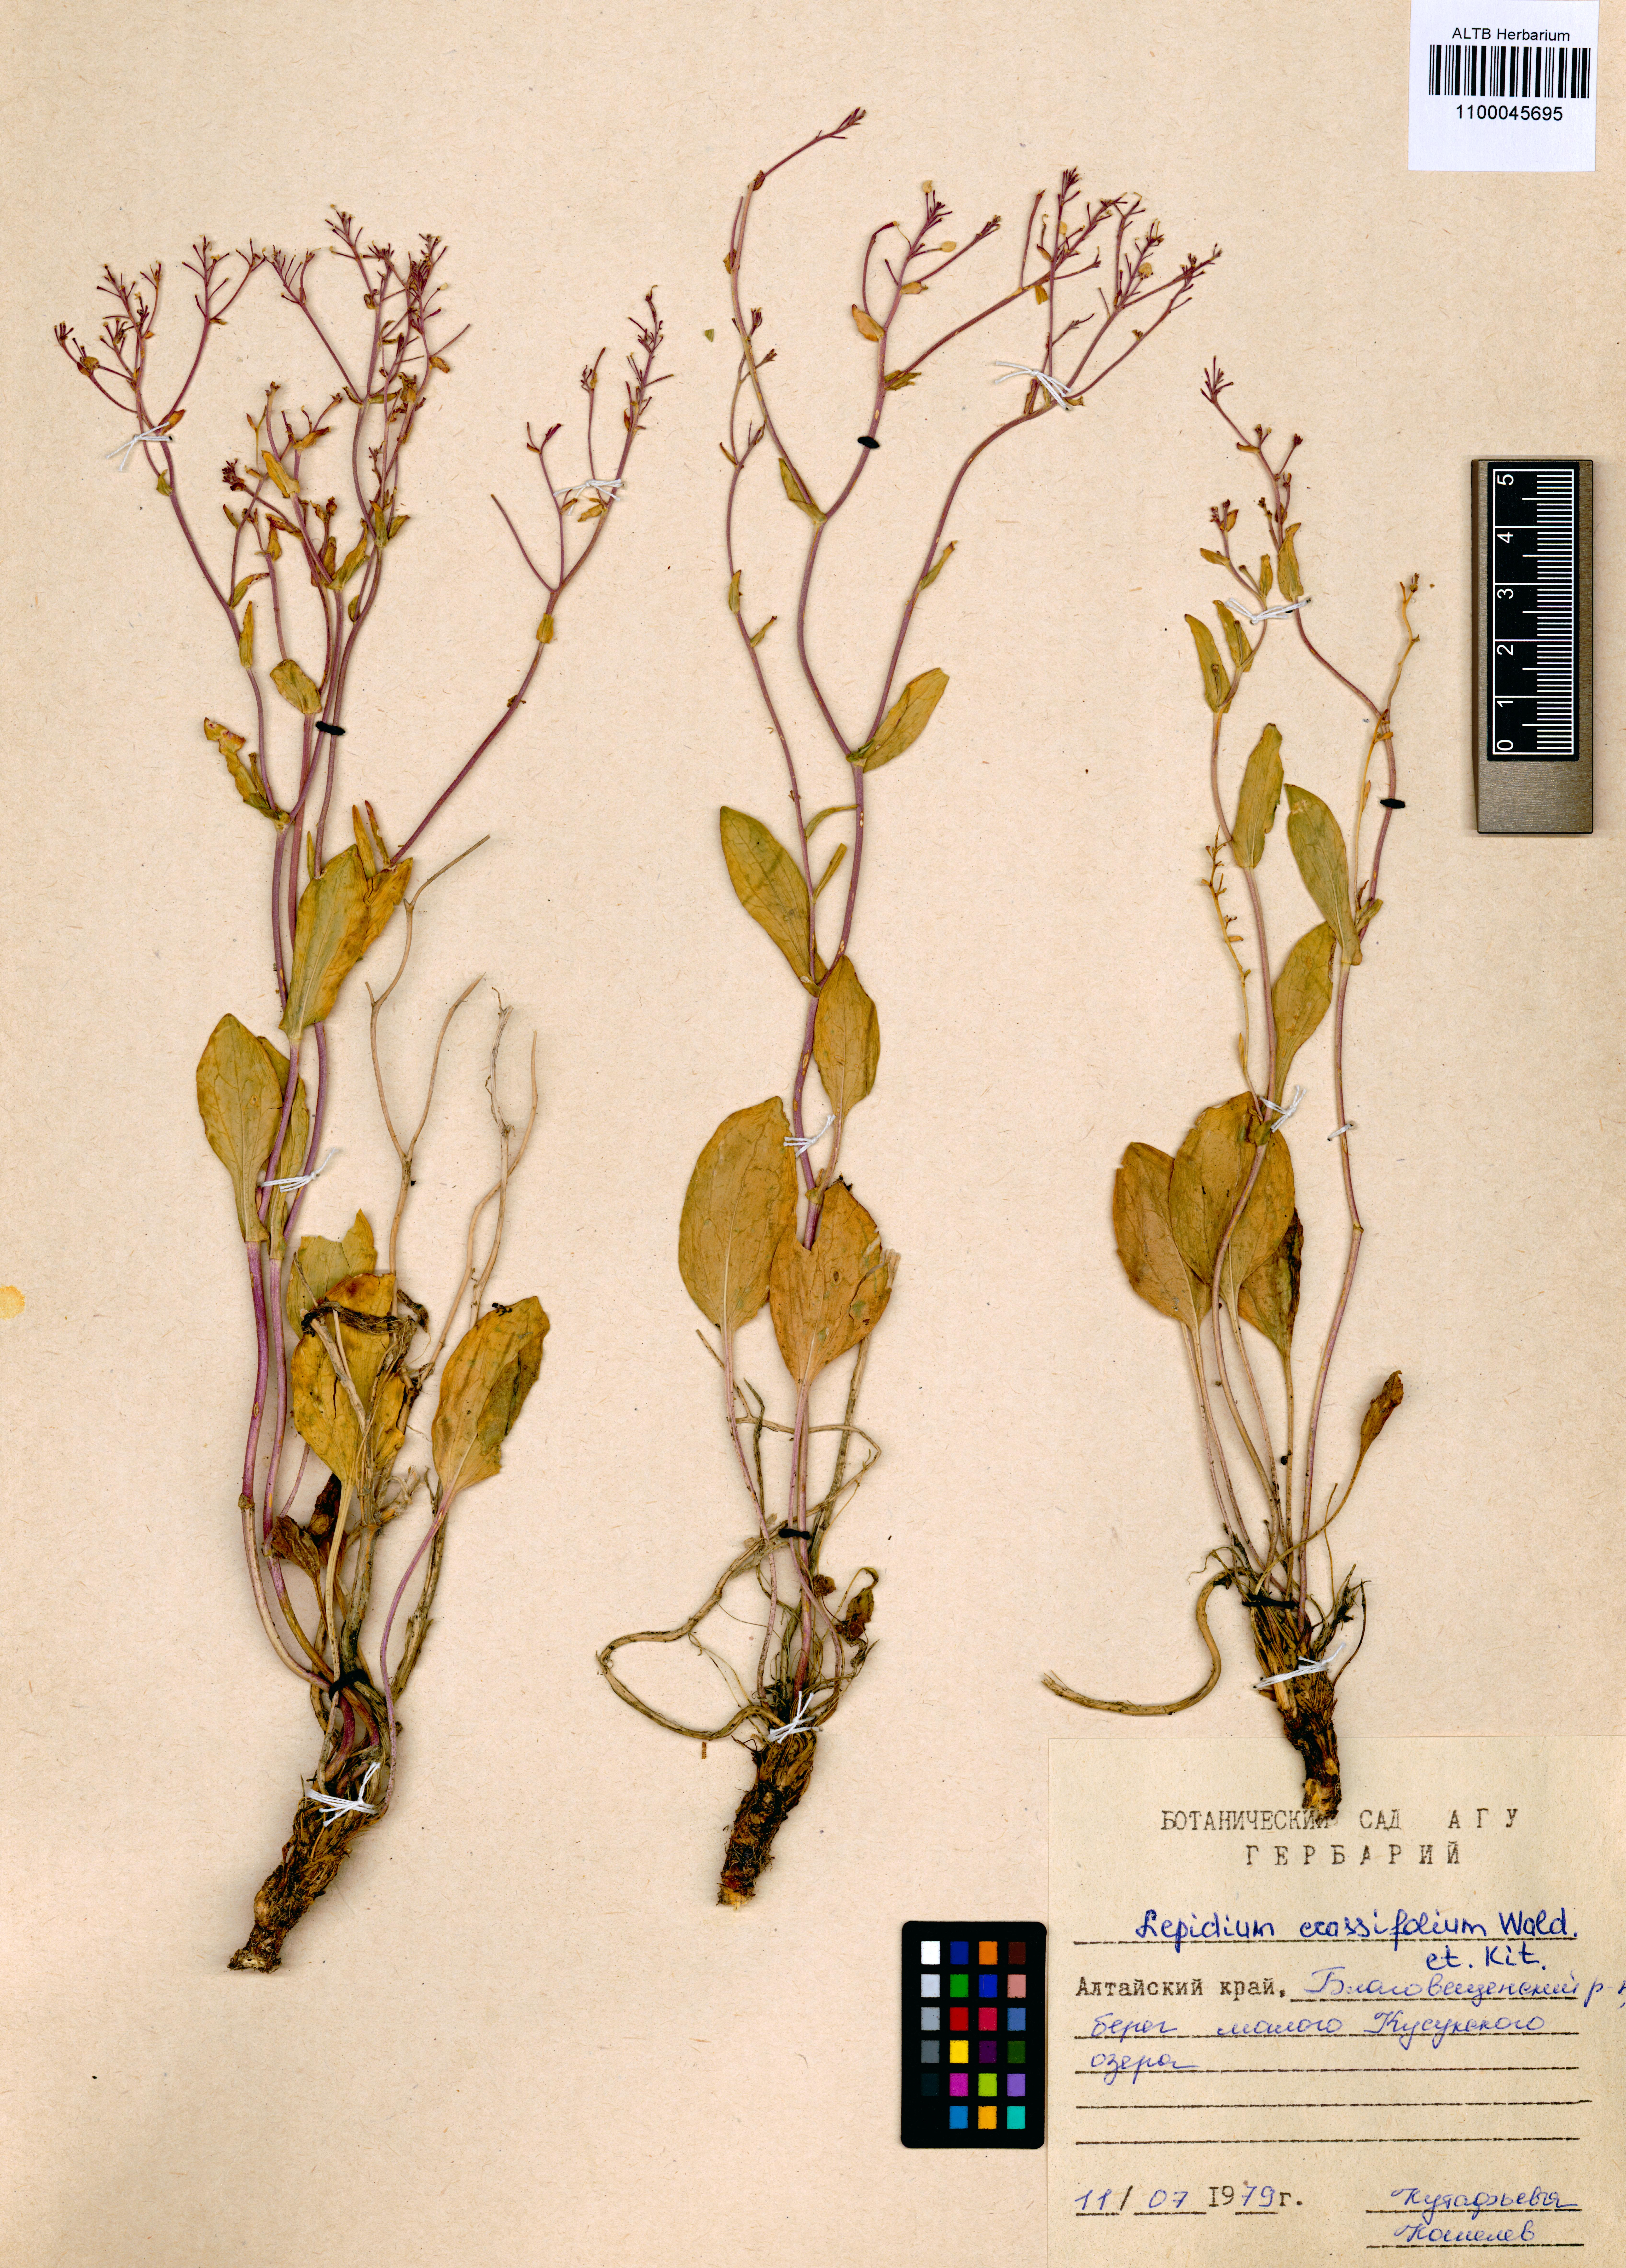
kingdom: Plantae
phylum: Tracheophyta
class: Magnoliopsida
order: Brassicales
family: Brassicaceae
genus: Lepidium
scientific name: Lepidium cartilagineum
